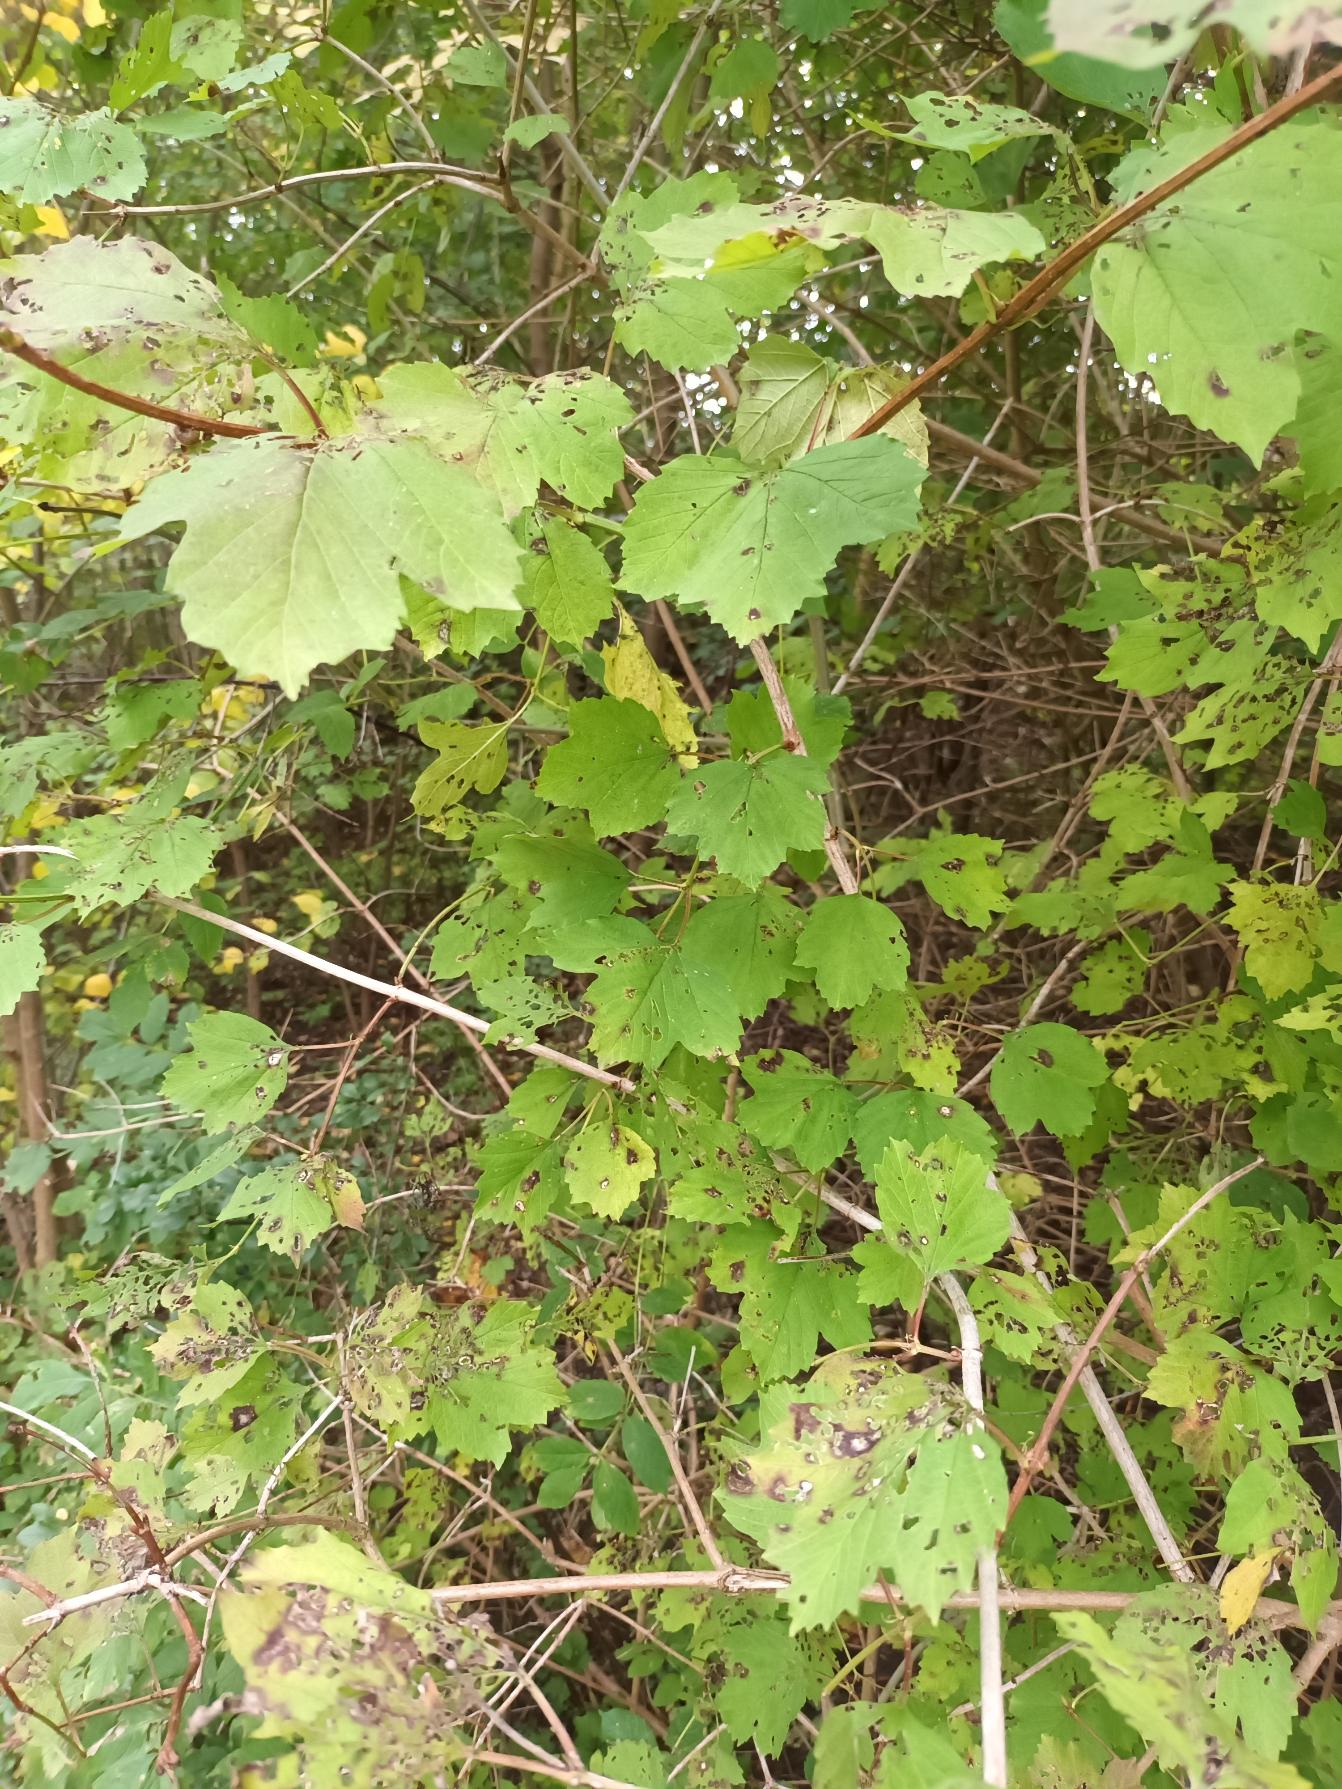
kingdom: Plantae
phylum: Tracheophyta
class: Magnoliopsida
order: Dipsacales
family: Viburnaceae
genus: Viburnum
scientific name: Viburnum opulus
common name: Kvalkved
